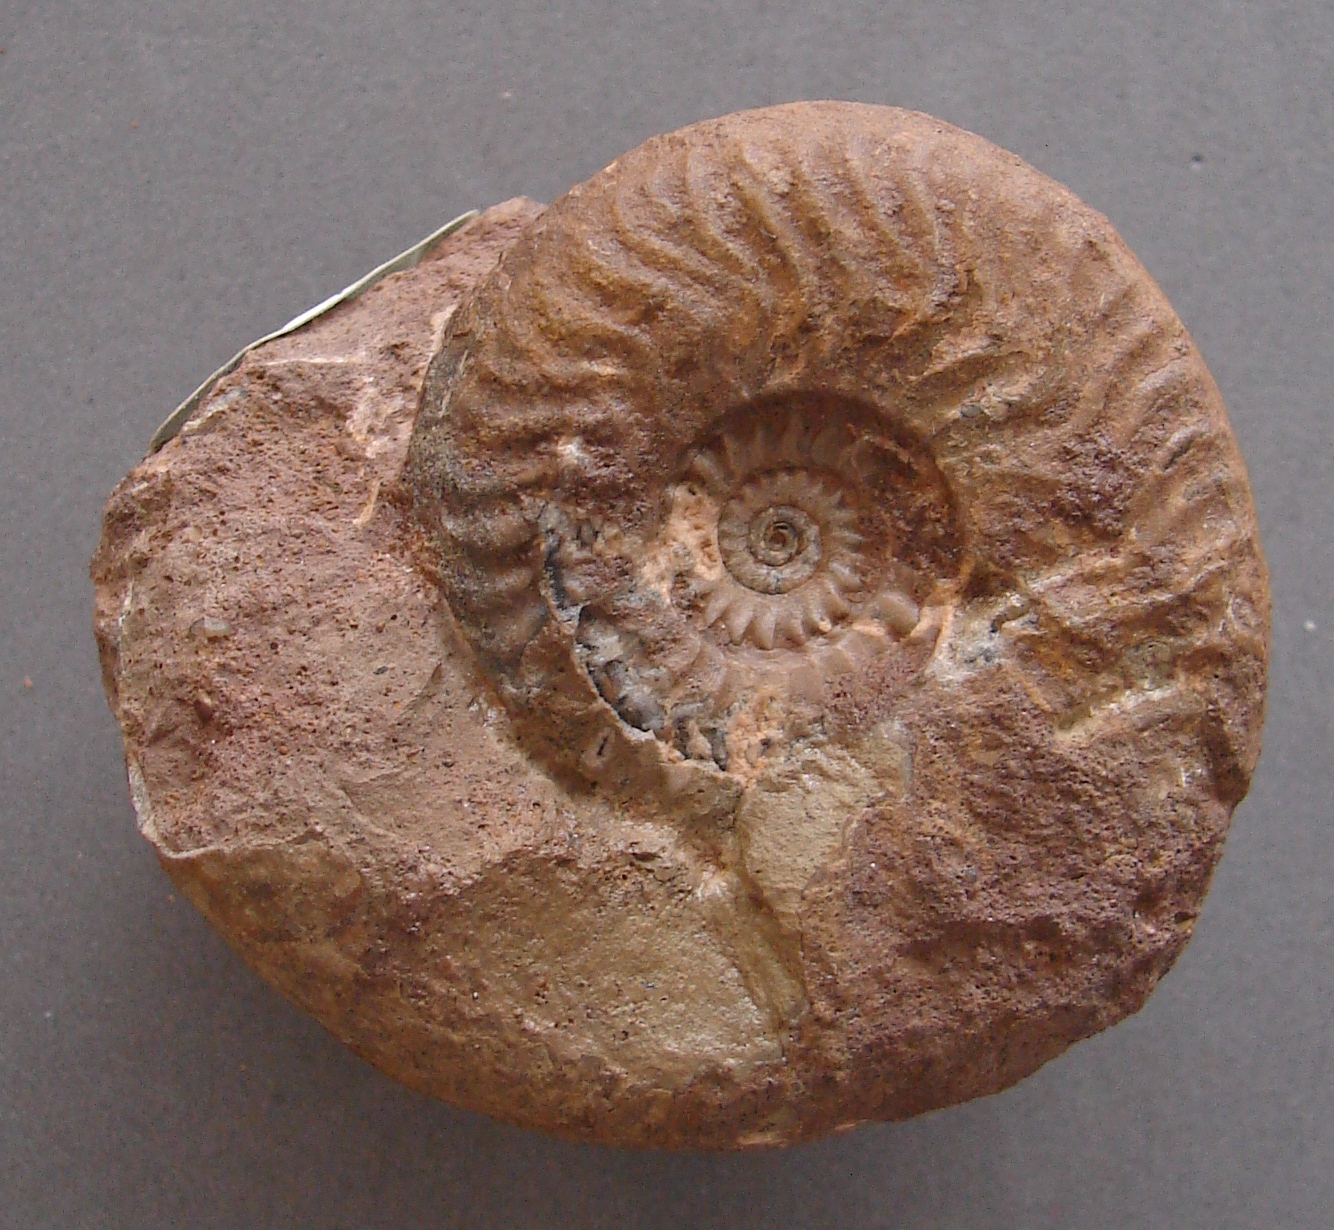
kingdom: Animalia
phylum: Mollusca
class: Cephalopoda
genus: Ammonites
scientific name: Ammonites murchisonae
